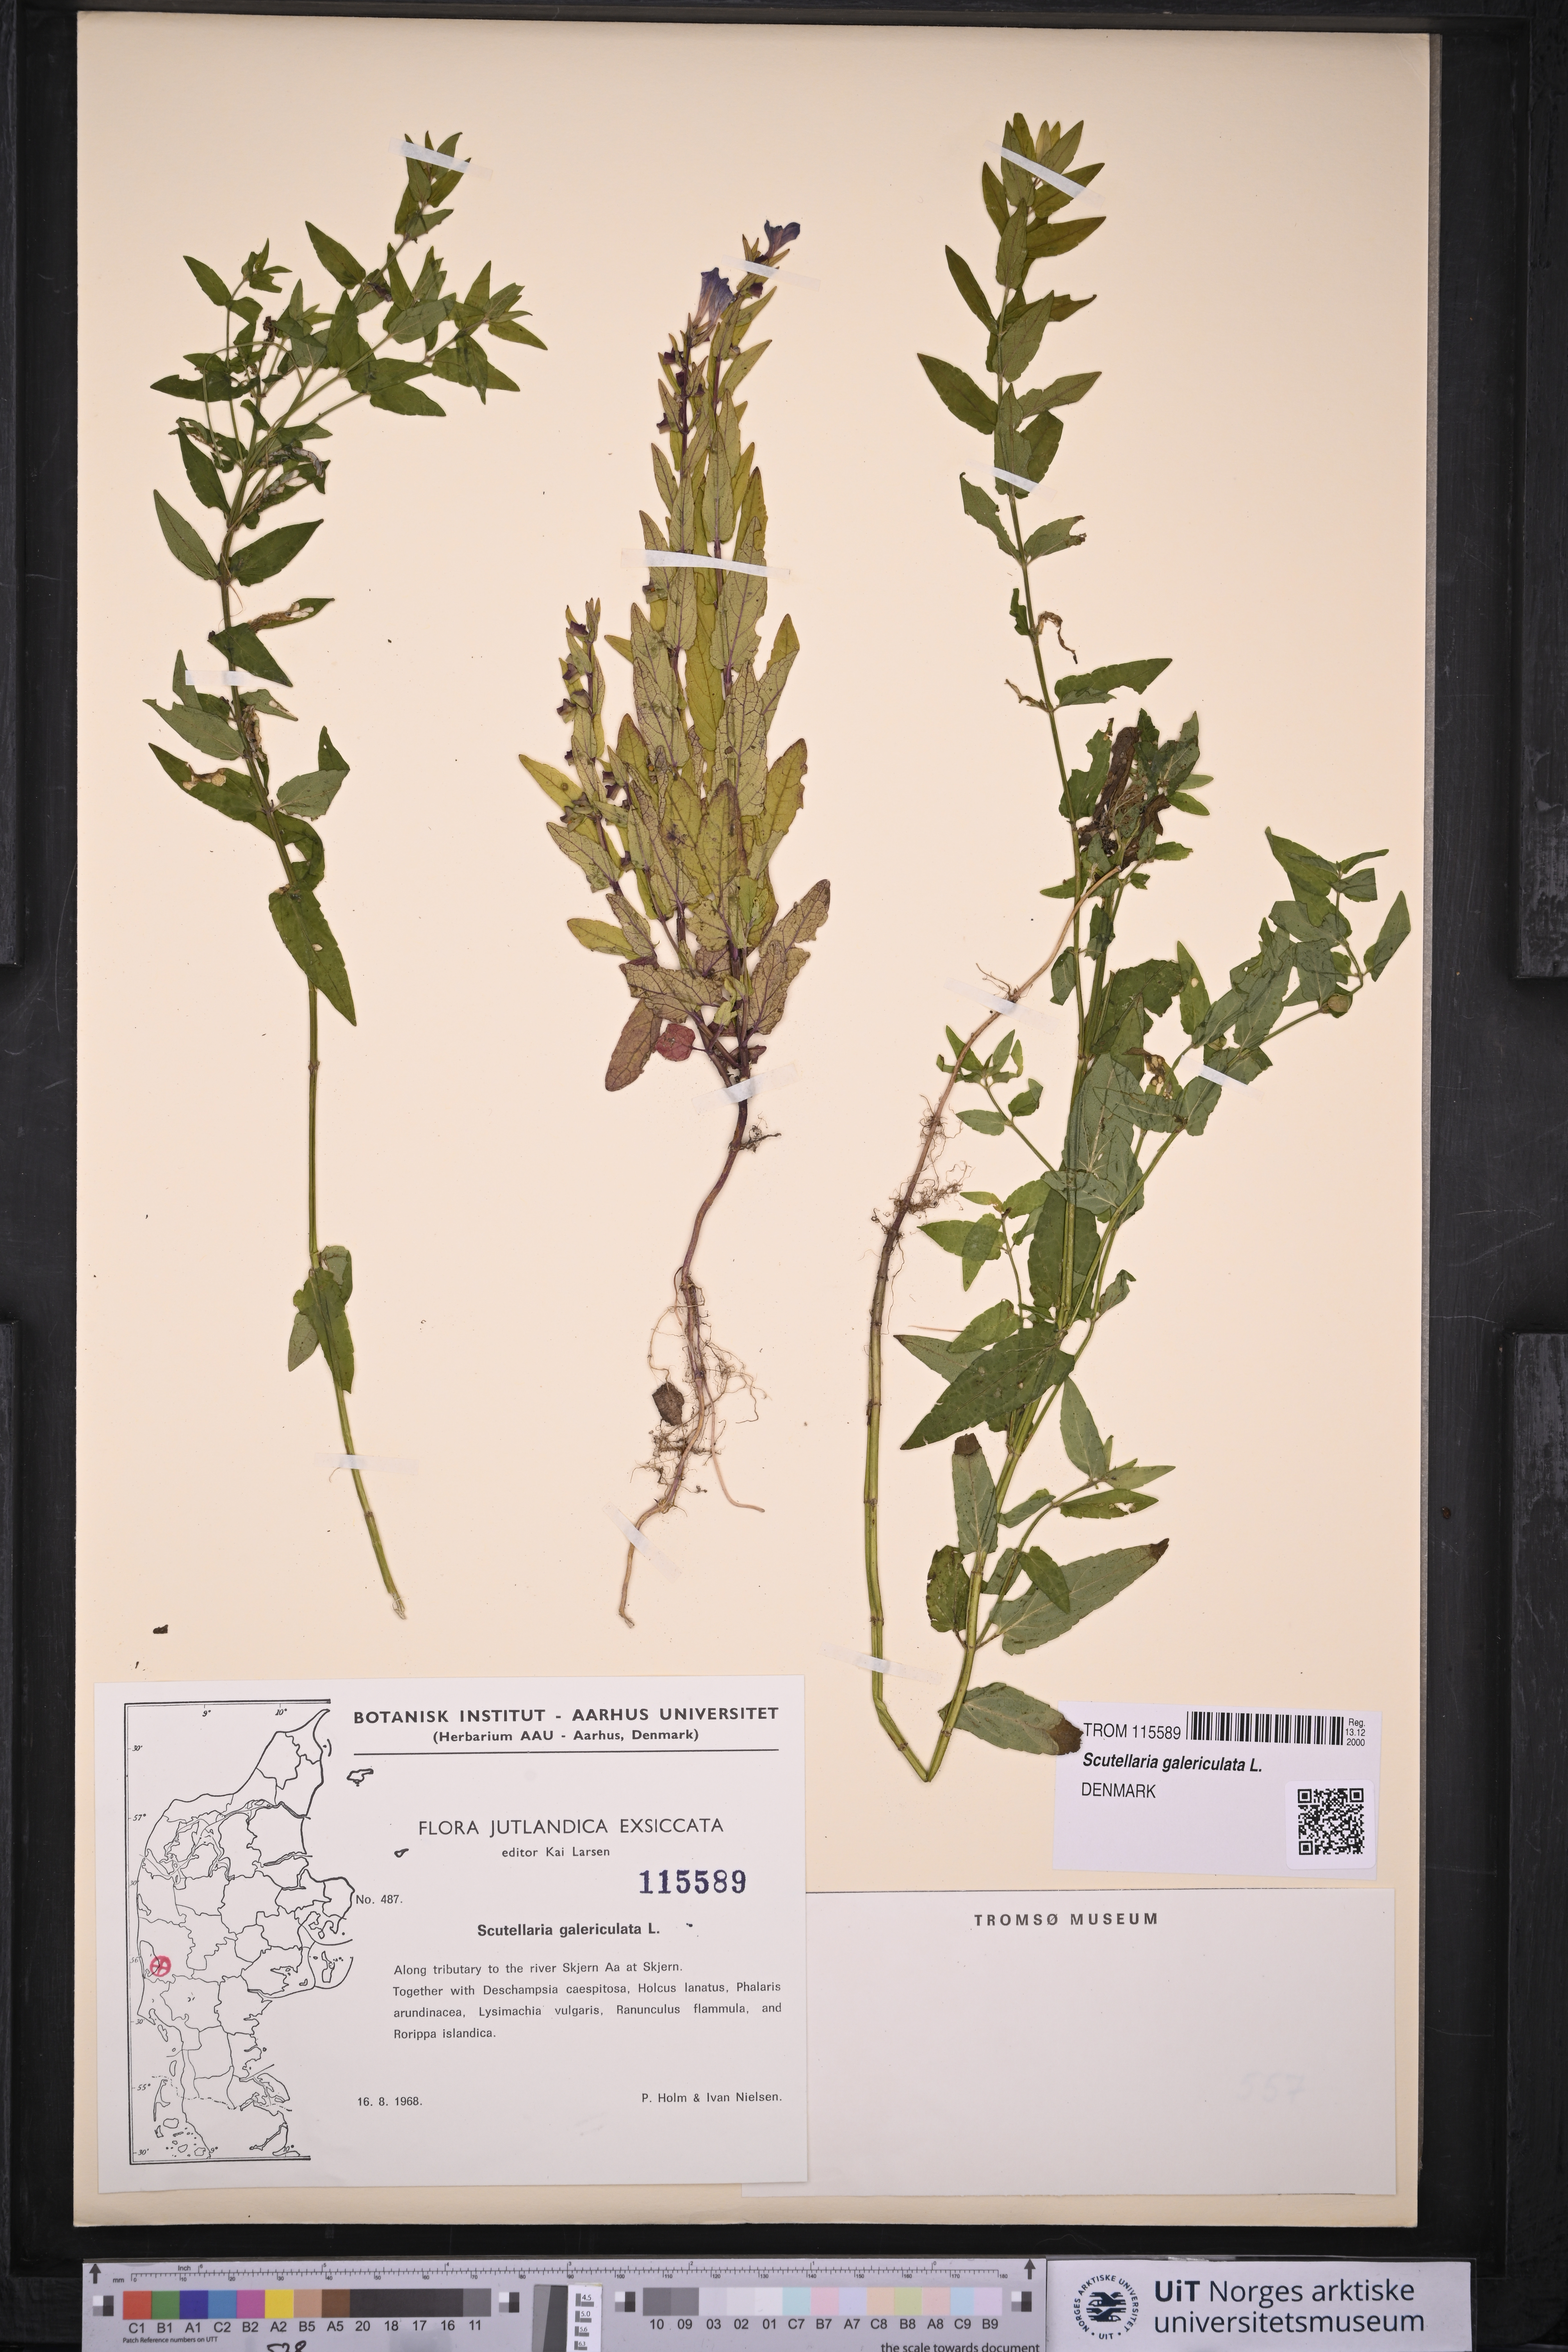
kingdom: Plantae
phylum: Tracheophyta
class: Magnoliopsida
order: Lamiales
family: Lamiaceae
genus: Scutellaria
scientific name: Scutellaria galericulata
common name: Skullcap
